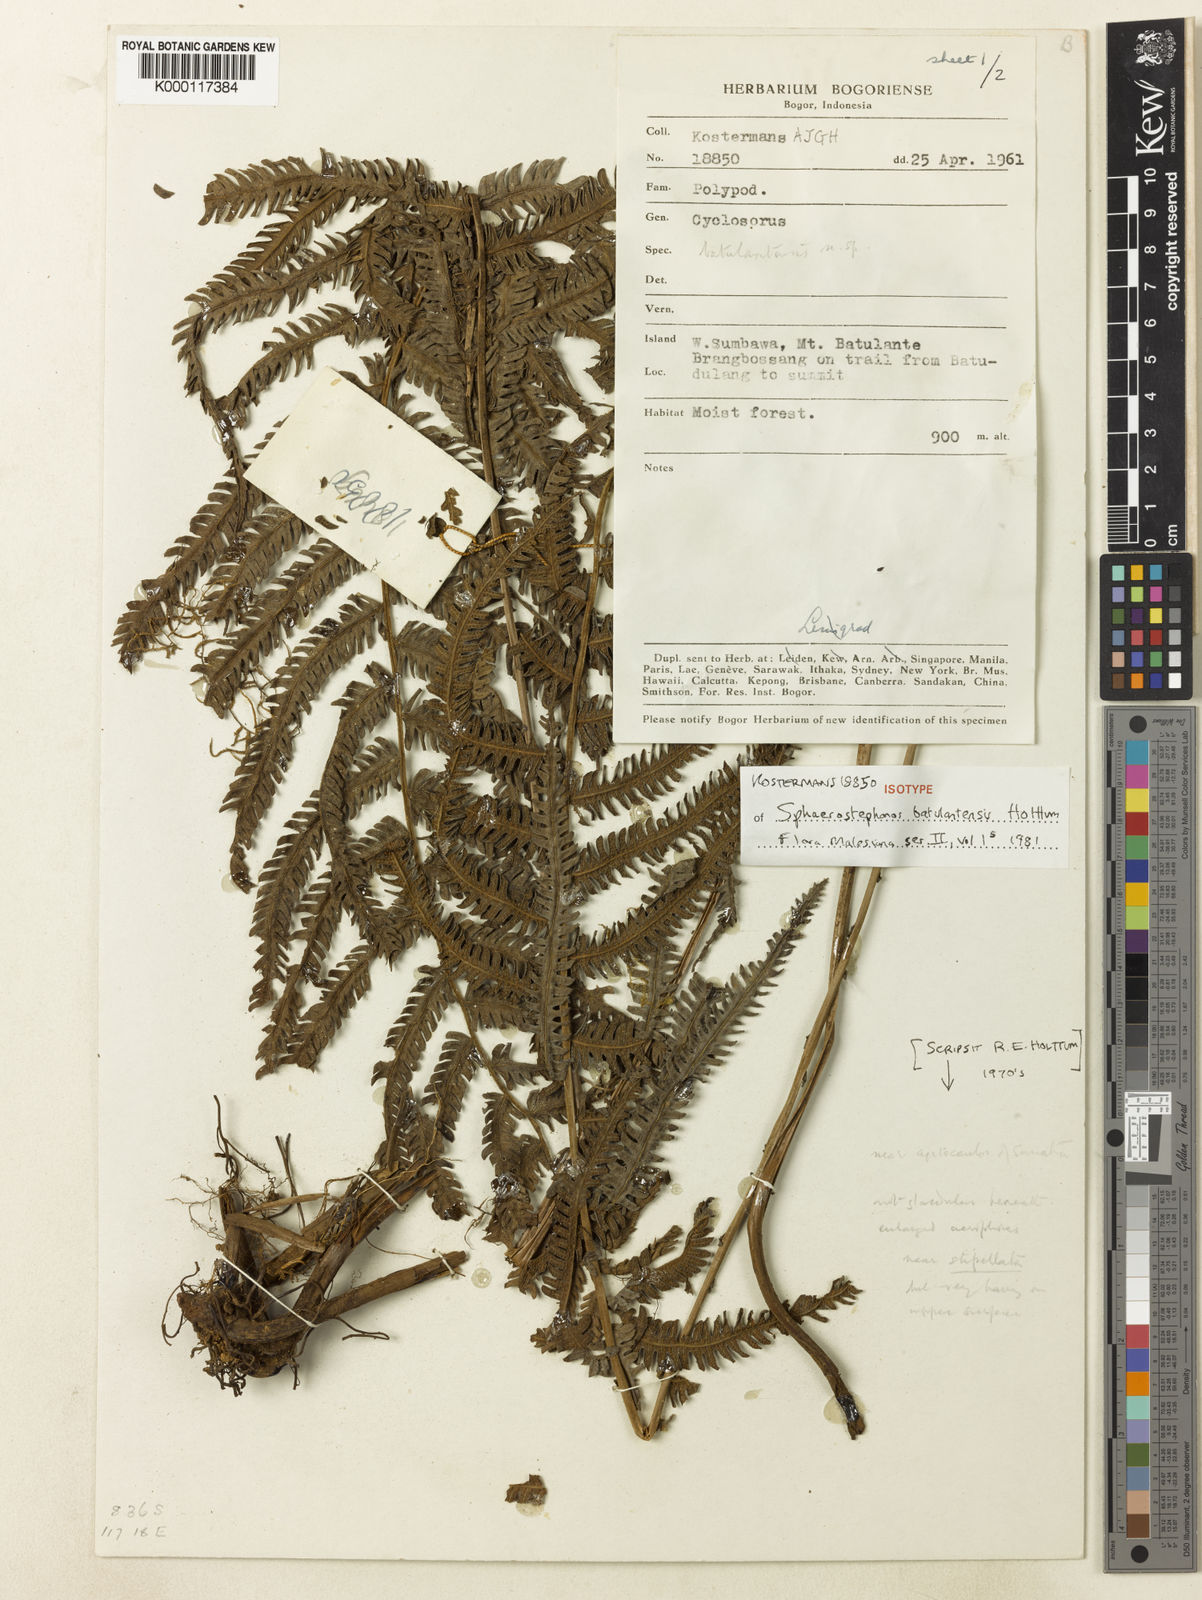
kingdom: Plantae
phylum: Tracheophyta
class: Polypodiopsida
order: Polypodiales
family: Thelypteridaceae
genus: Sphaerostephanos
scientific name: Sphaerostephanos batulantensis
